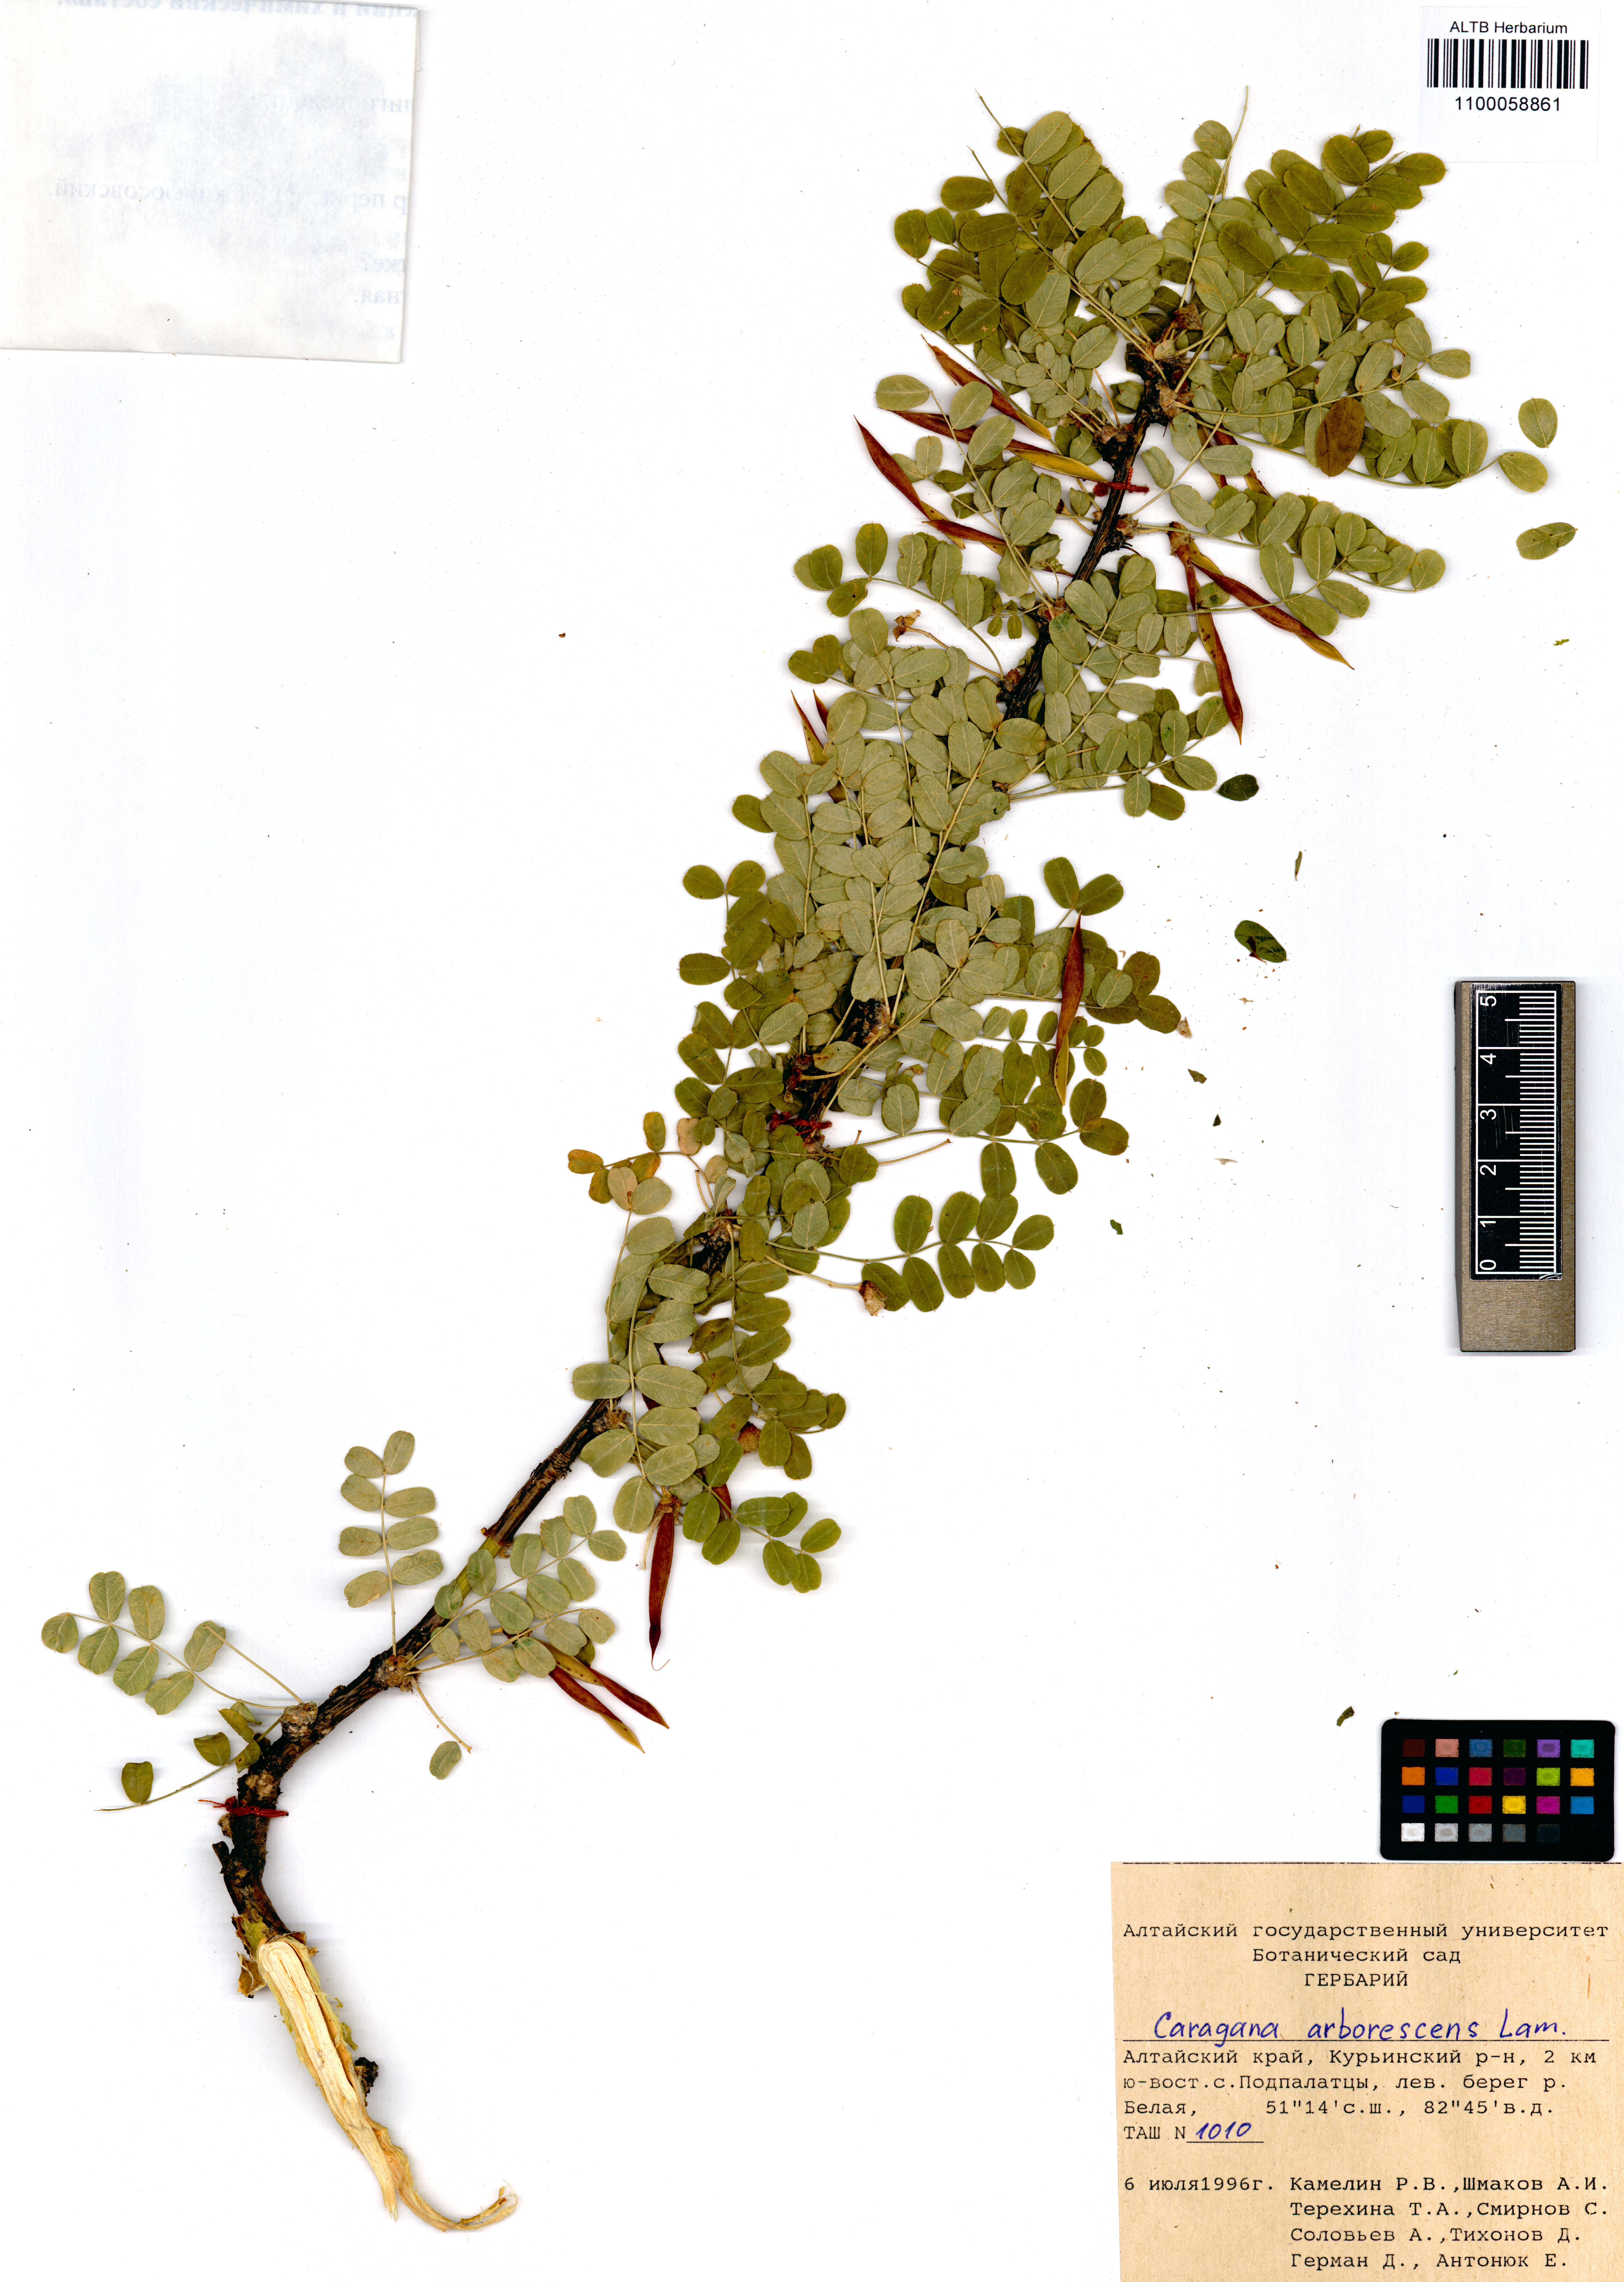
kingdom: Plantae
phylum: Tracheophyta
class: Magnoliopsida
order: Fabales
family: Fabaceae
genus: Caragana
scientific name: Caragana arborescens
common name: Siberian peashrub
